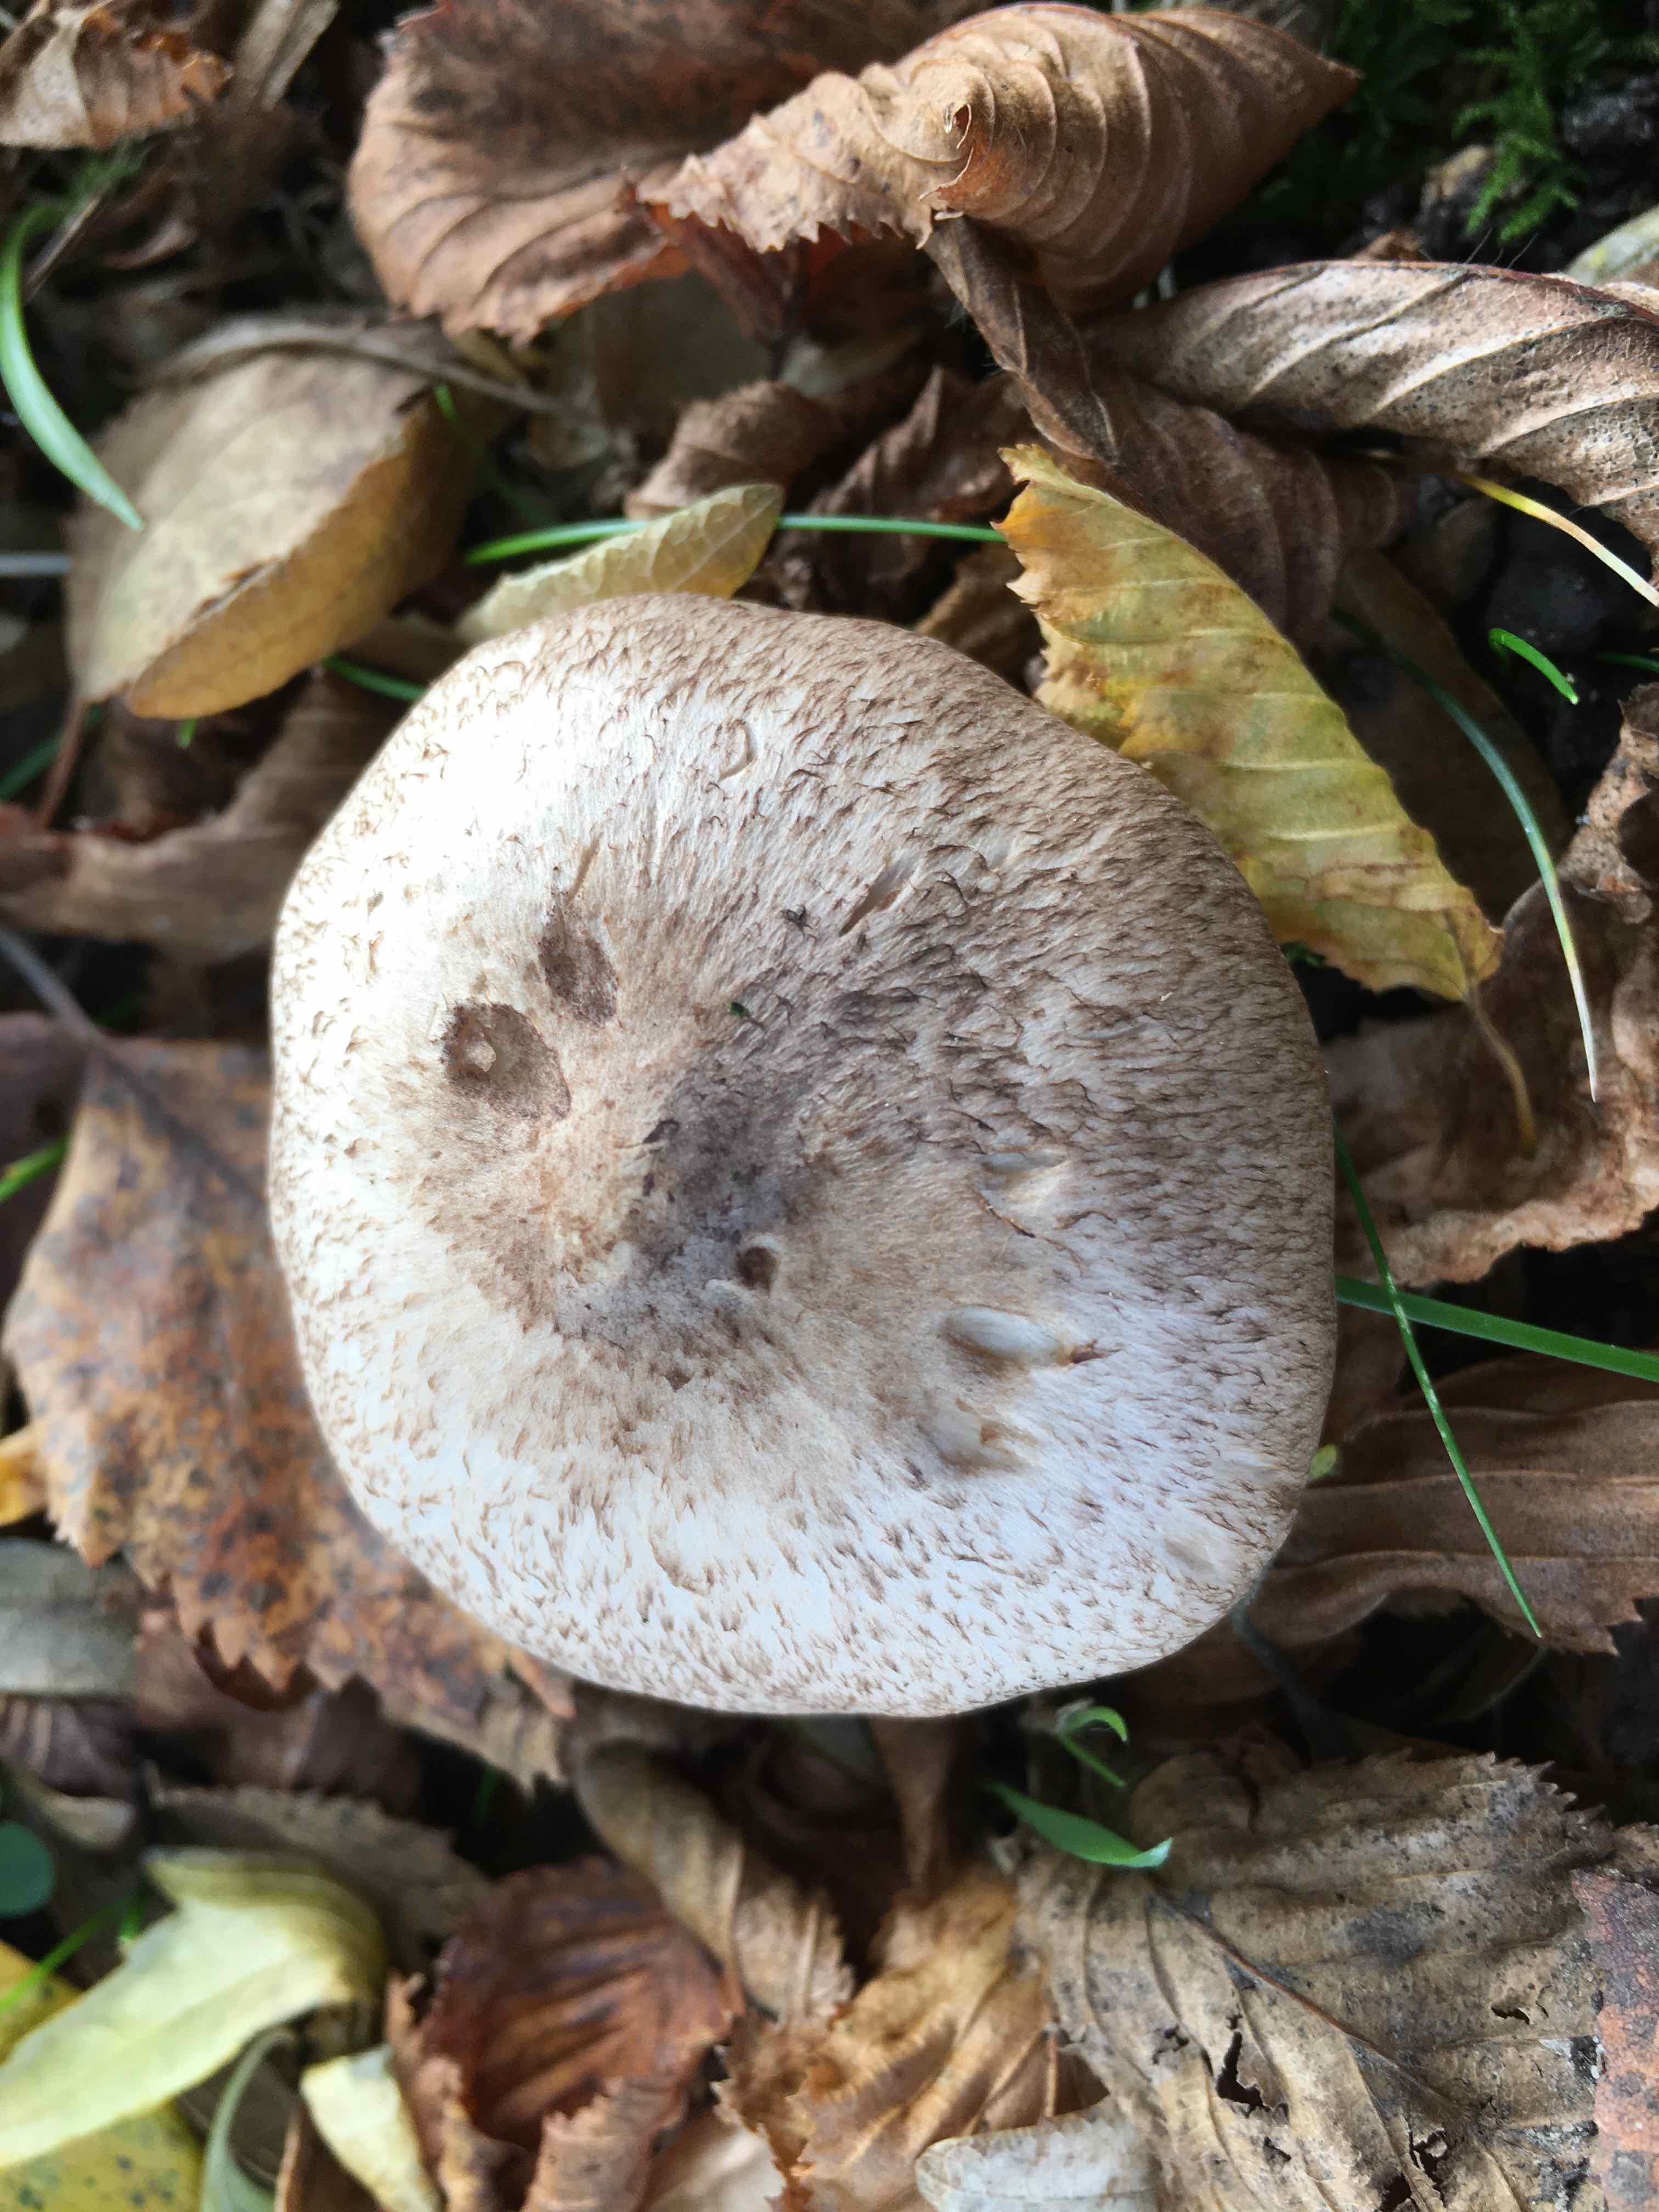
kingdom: Fungi
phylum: Basidiomycota
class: Agaricomycetes
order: Agaricales
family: Tricholomataceae
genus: Tricholoma
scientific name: Tricholoma
